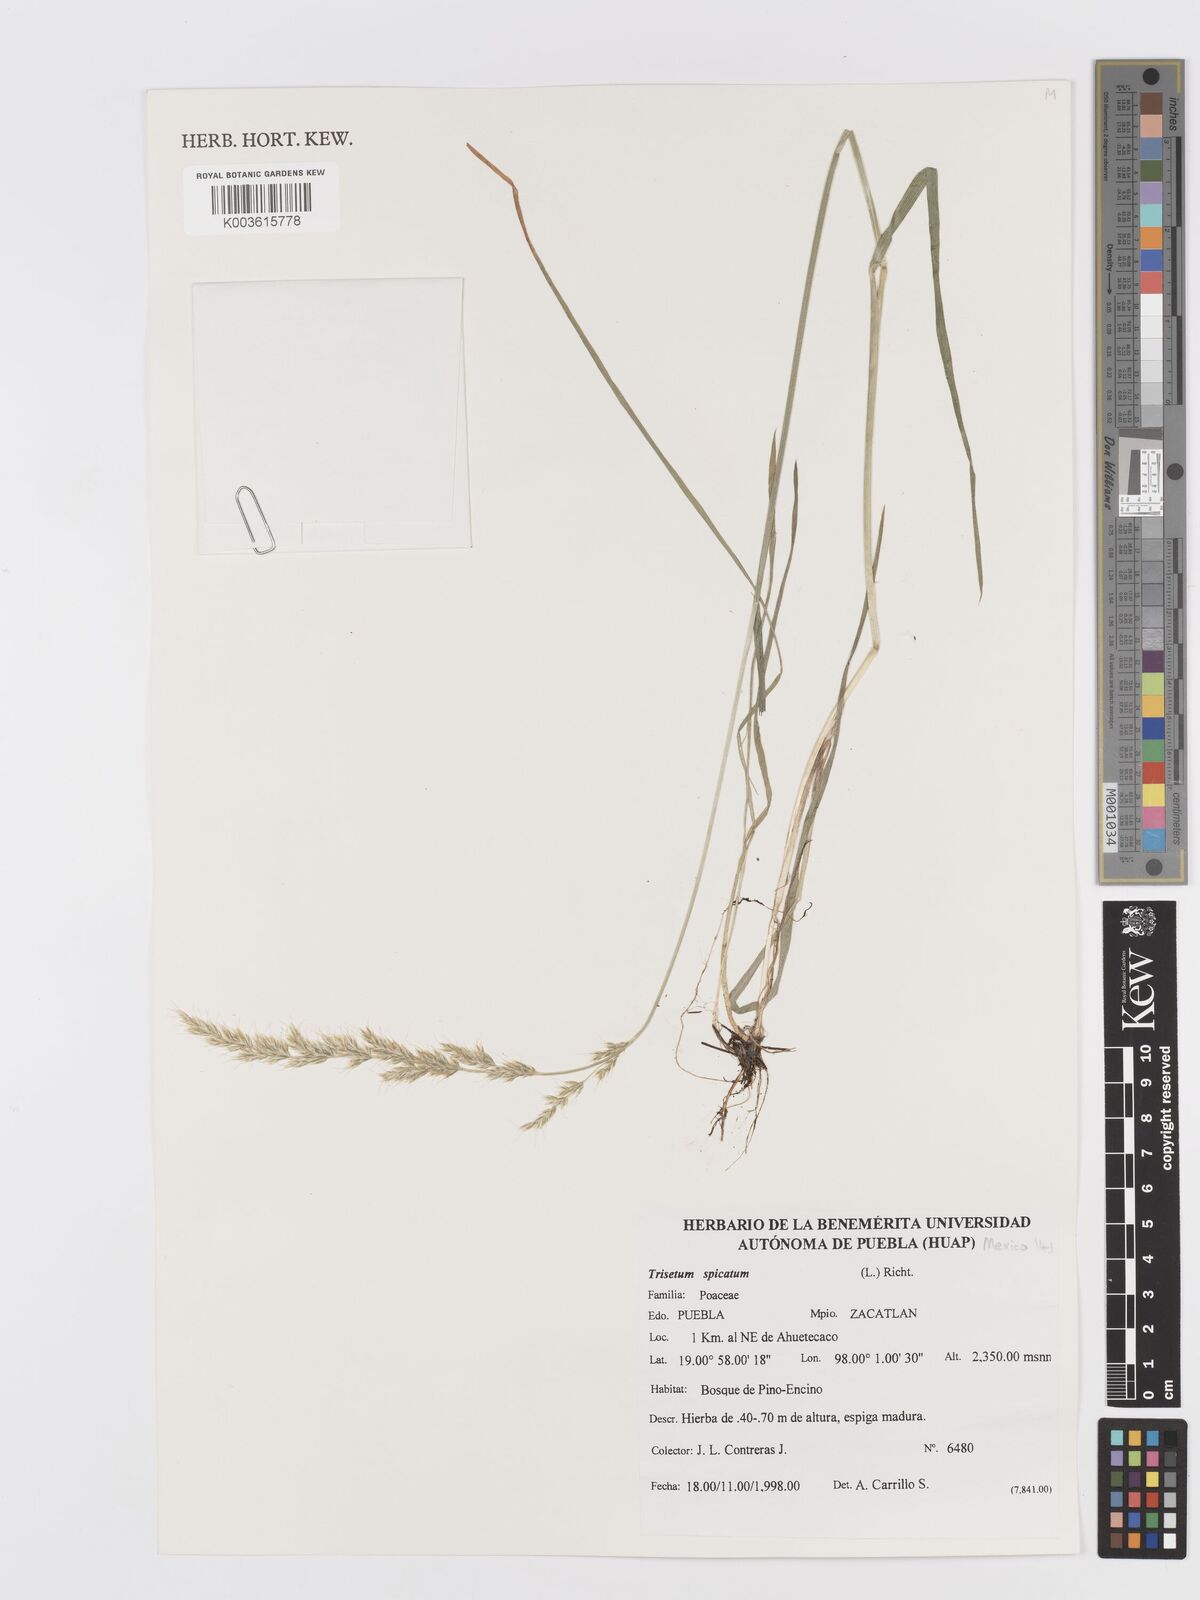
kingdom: Plantae
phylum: Tracheophyta
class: Liliopsida
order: Poales
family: Poaceae
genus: Koeleria
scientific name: Koeleria spicata
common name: Mountain trisetum
